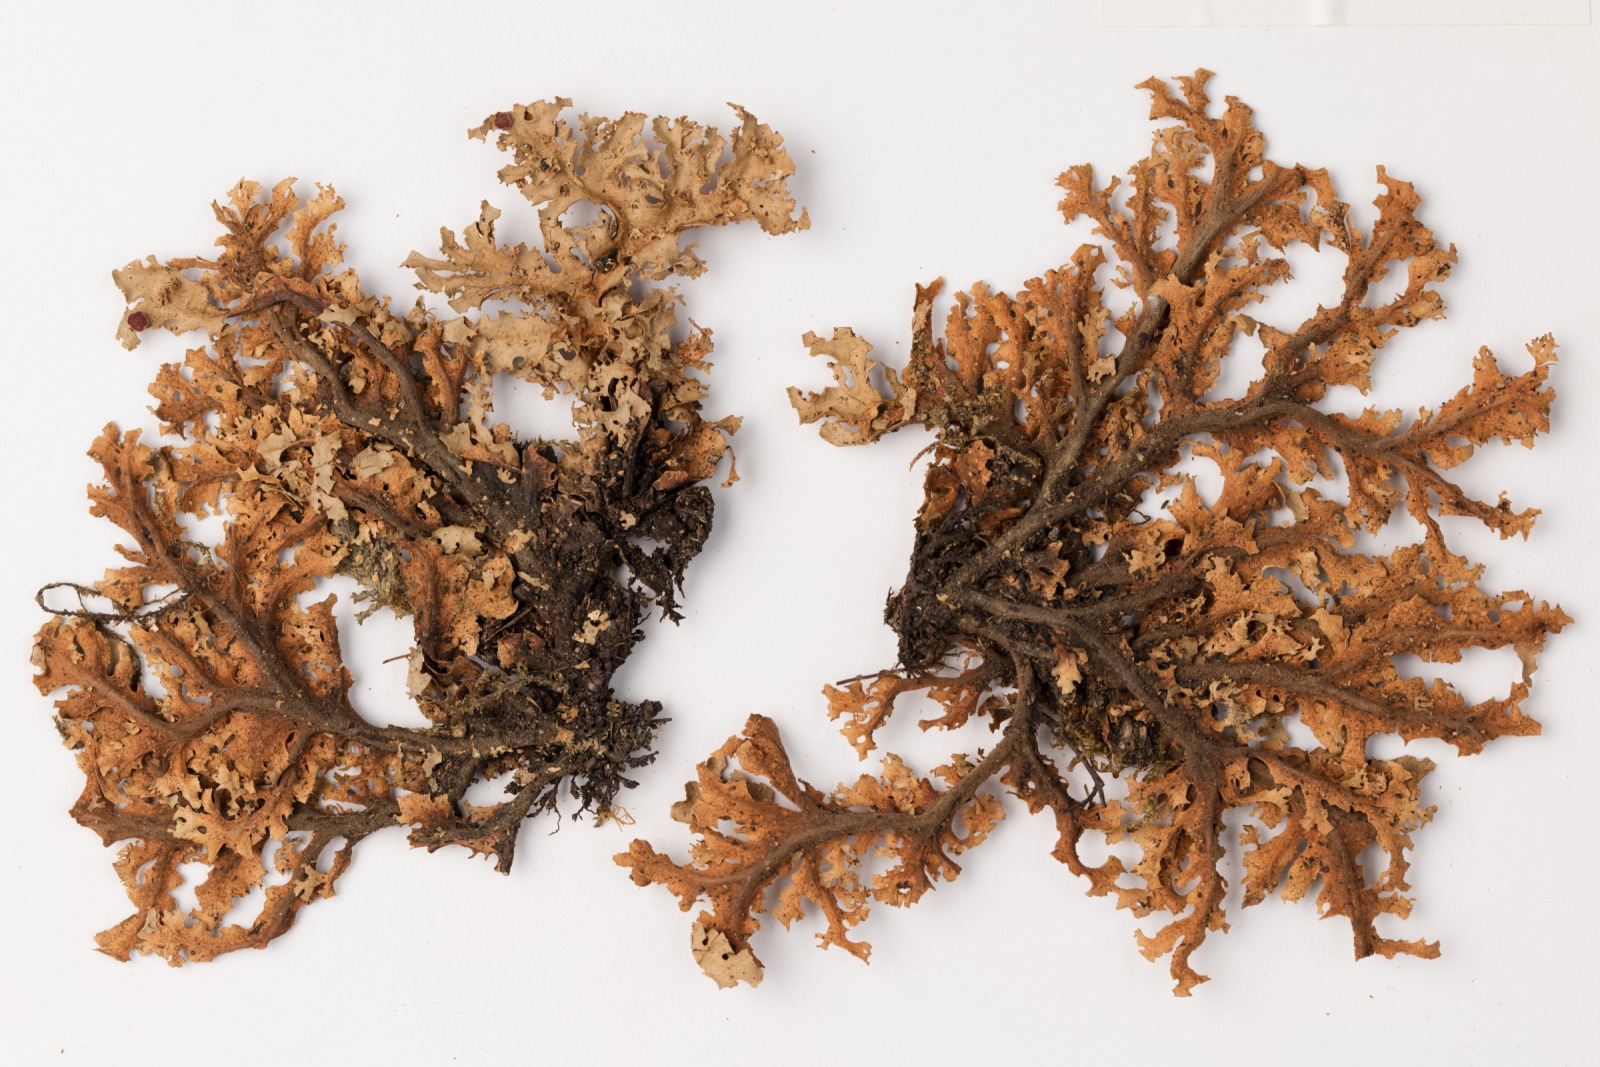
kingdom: Fungi
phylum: Ascomycota
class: Lecanoromycetes
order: Peltigerales
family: Lobariaceae
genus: Sticta
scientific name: Sticta filix
